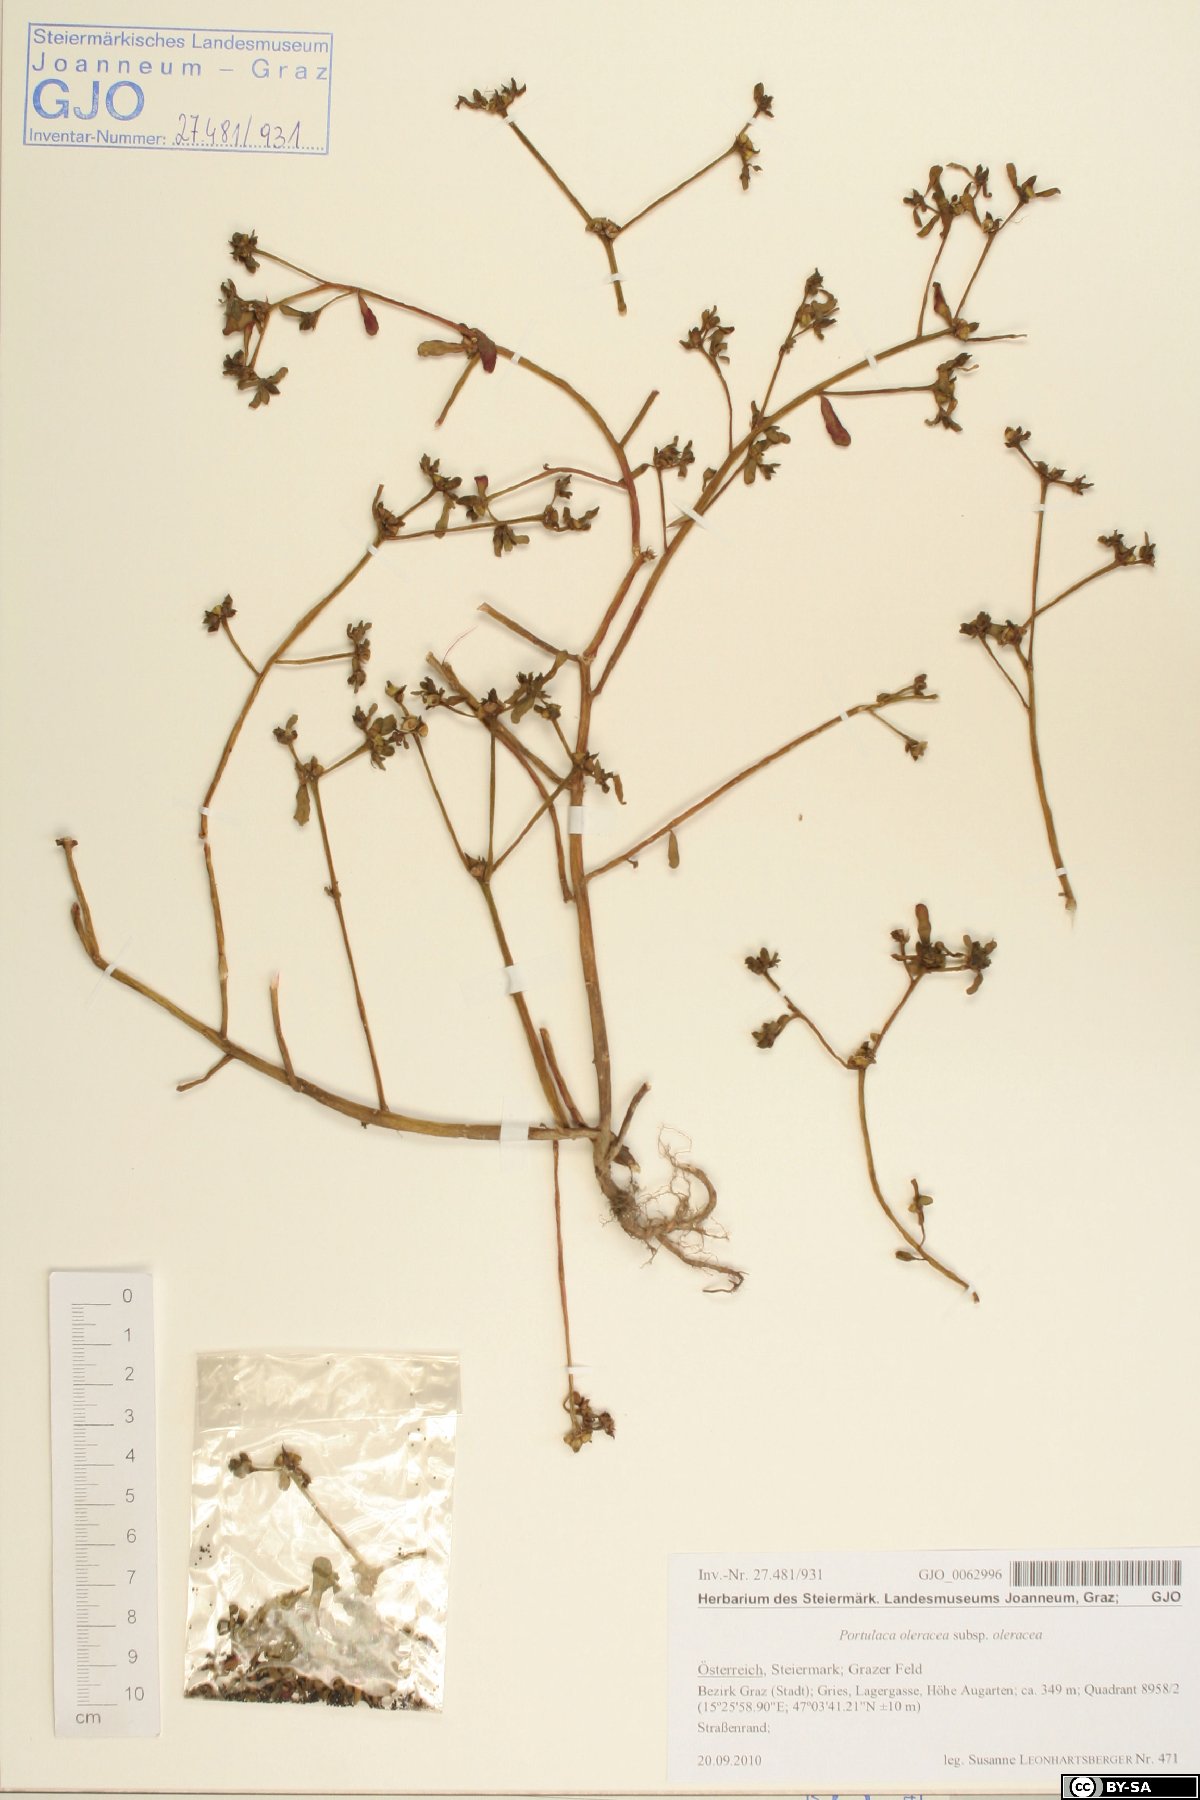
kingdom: Plantae
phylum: Tracheophyta
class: Magnoliopsida
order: Caryophyllales
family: Portulacaceae
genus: Portulaca
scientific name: Portulaca oleracea
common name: Common purslane
